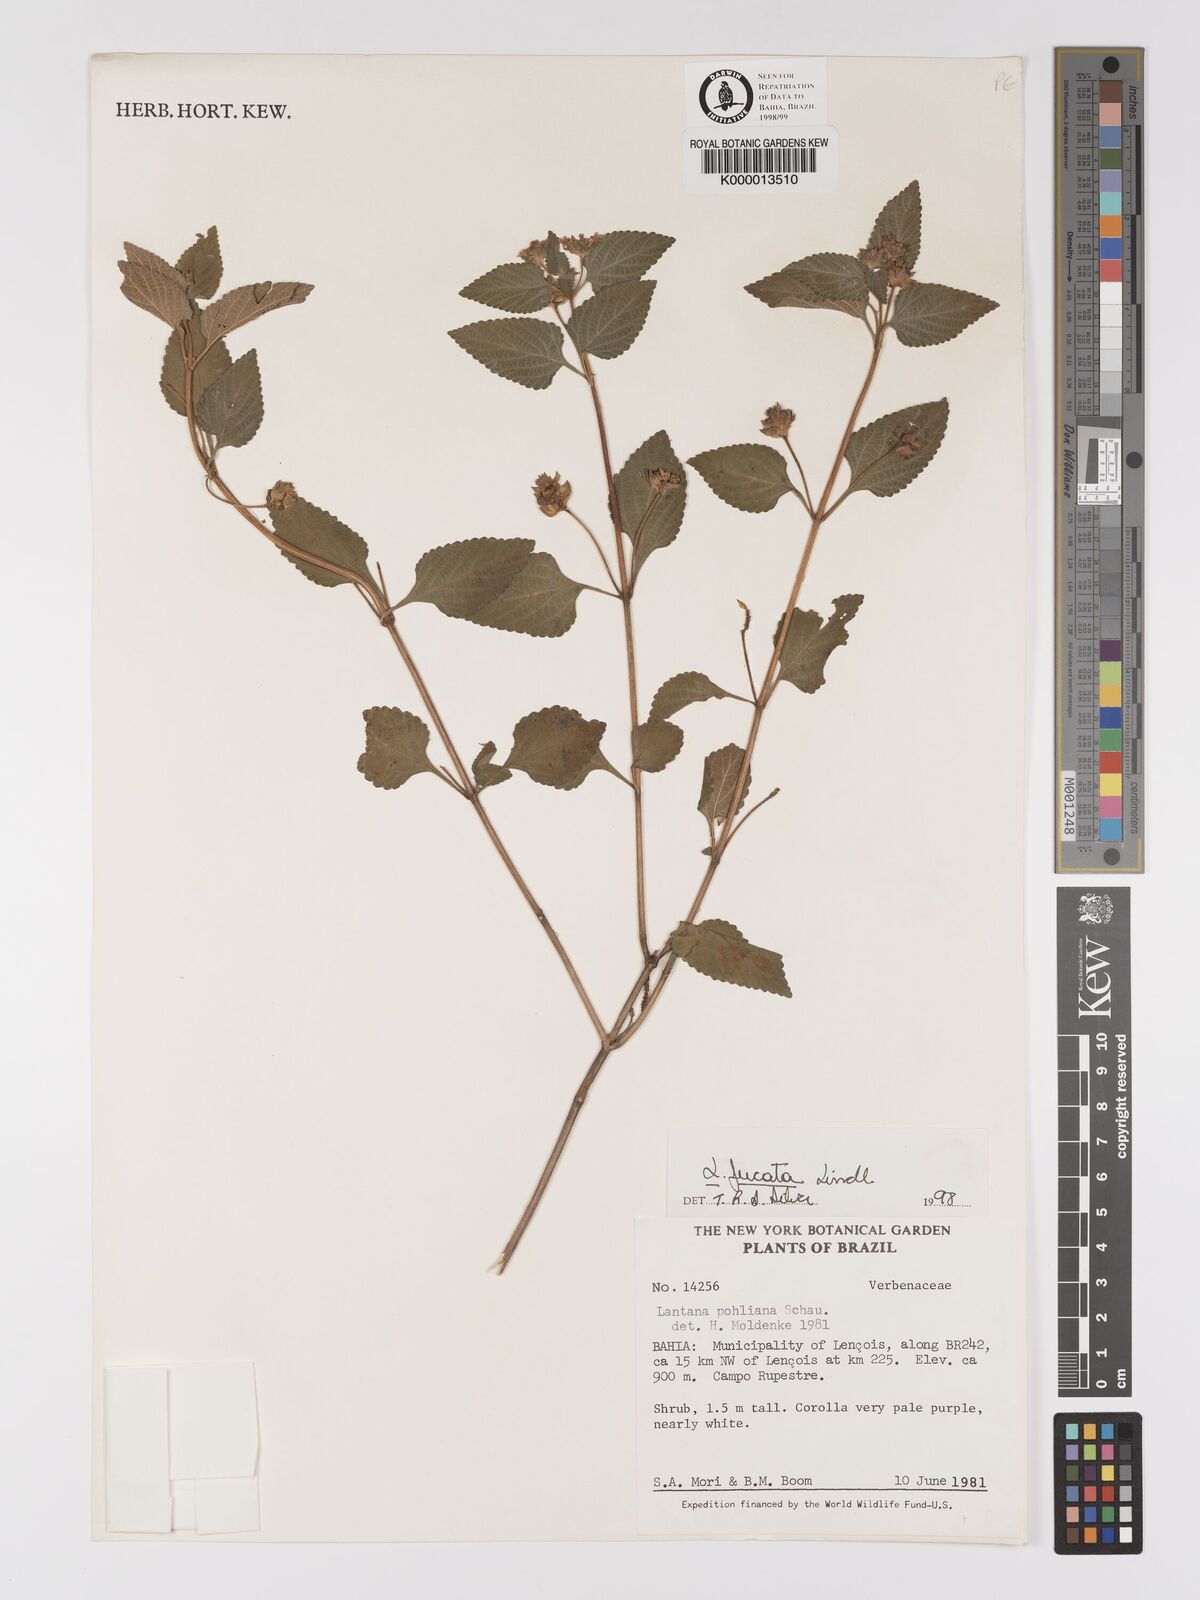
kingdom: Plantae
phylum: Tracheophyta
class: Magnoliopsida
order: Lamiales
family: Verbenaceae
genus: Lantana
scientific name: Lantana fucata
